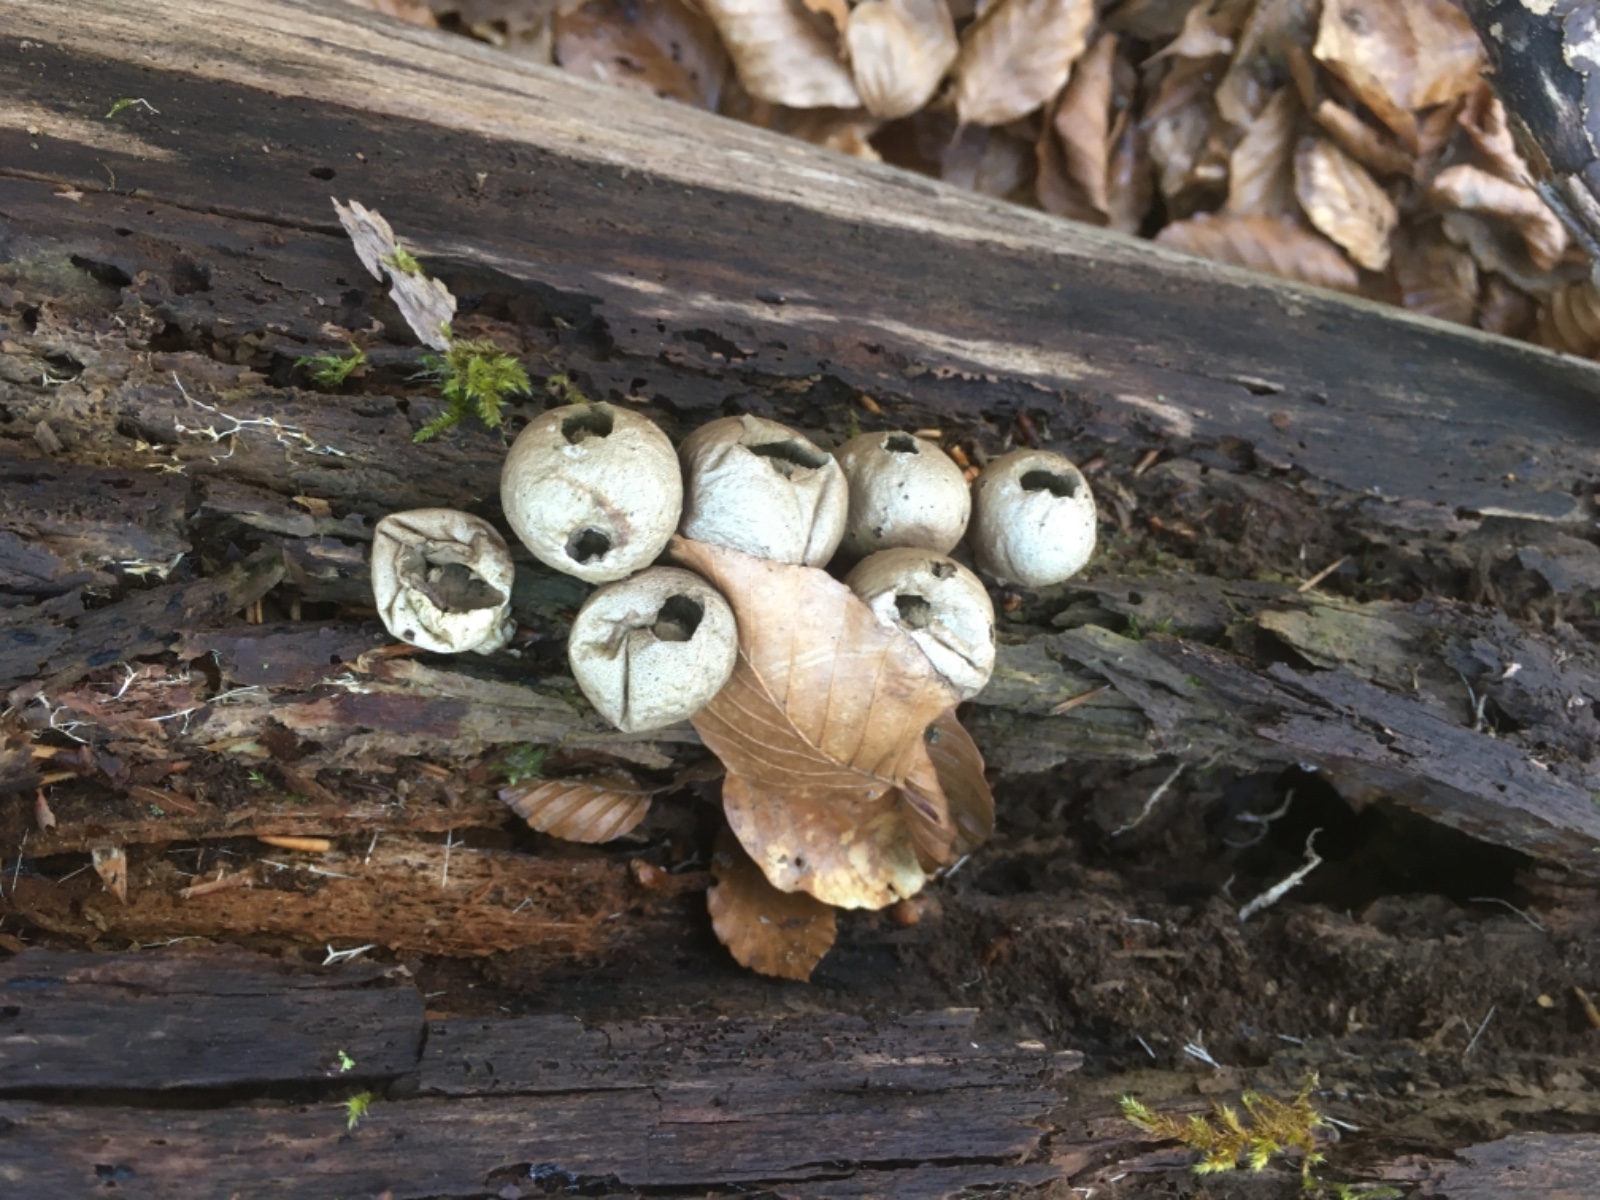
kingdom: Fungi
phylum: Basidiomycota
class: Agaricomycetes
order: Agaricales
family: Lycoperdaceae
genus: Apioperdon
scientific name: Apioperdon pyriforme
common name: pære-støvbold
